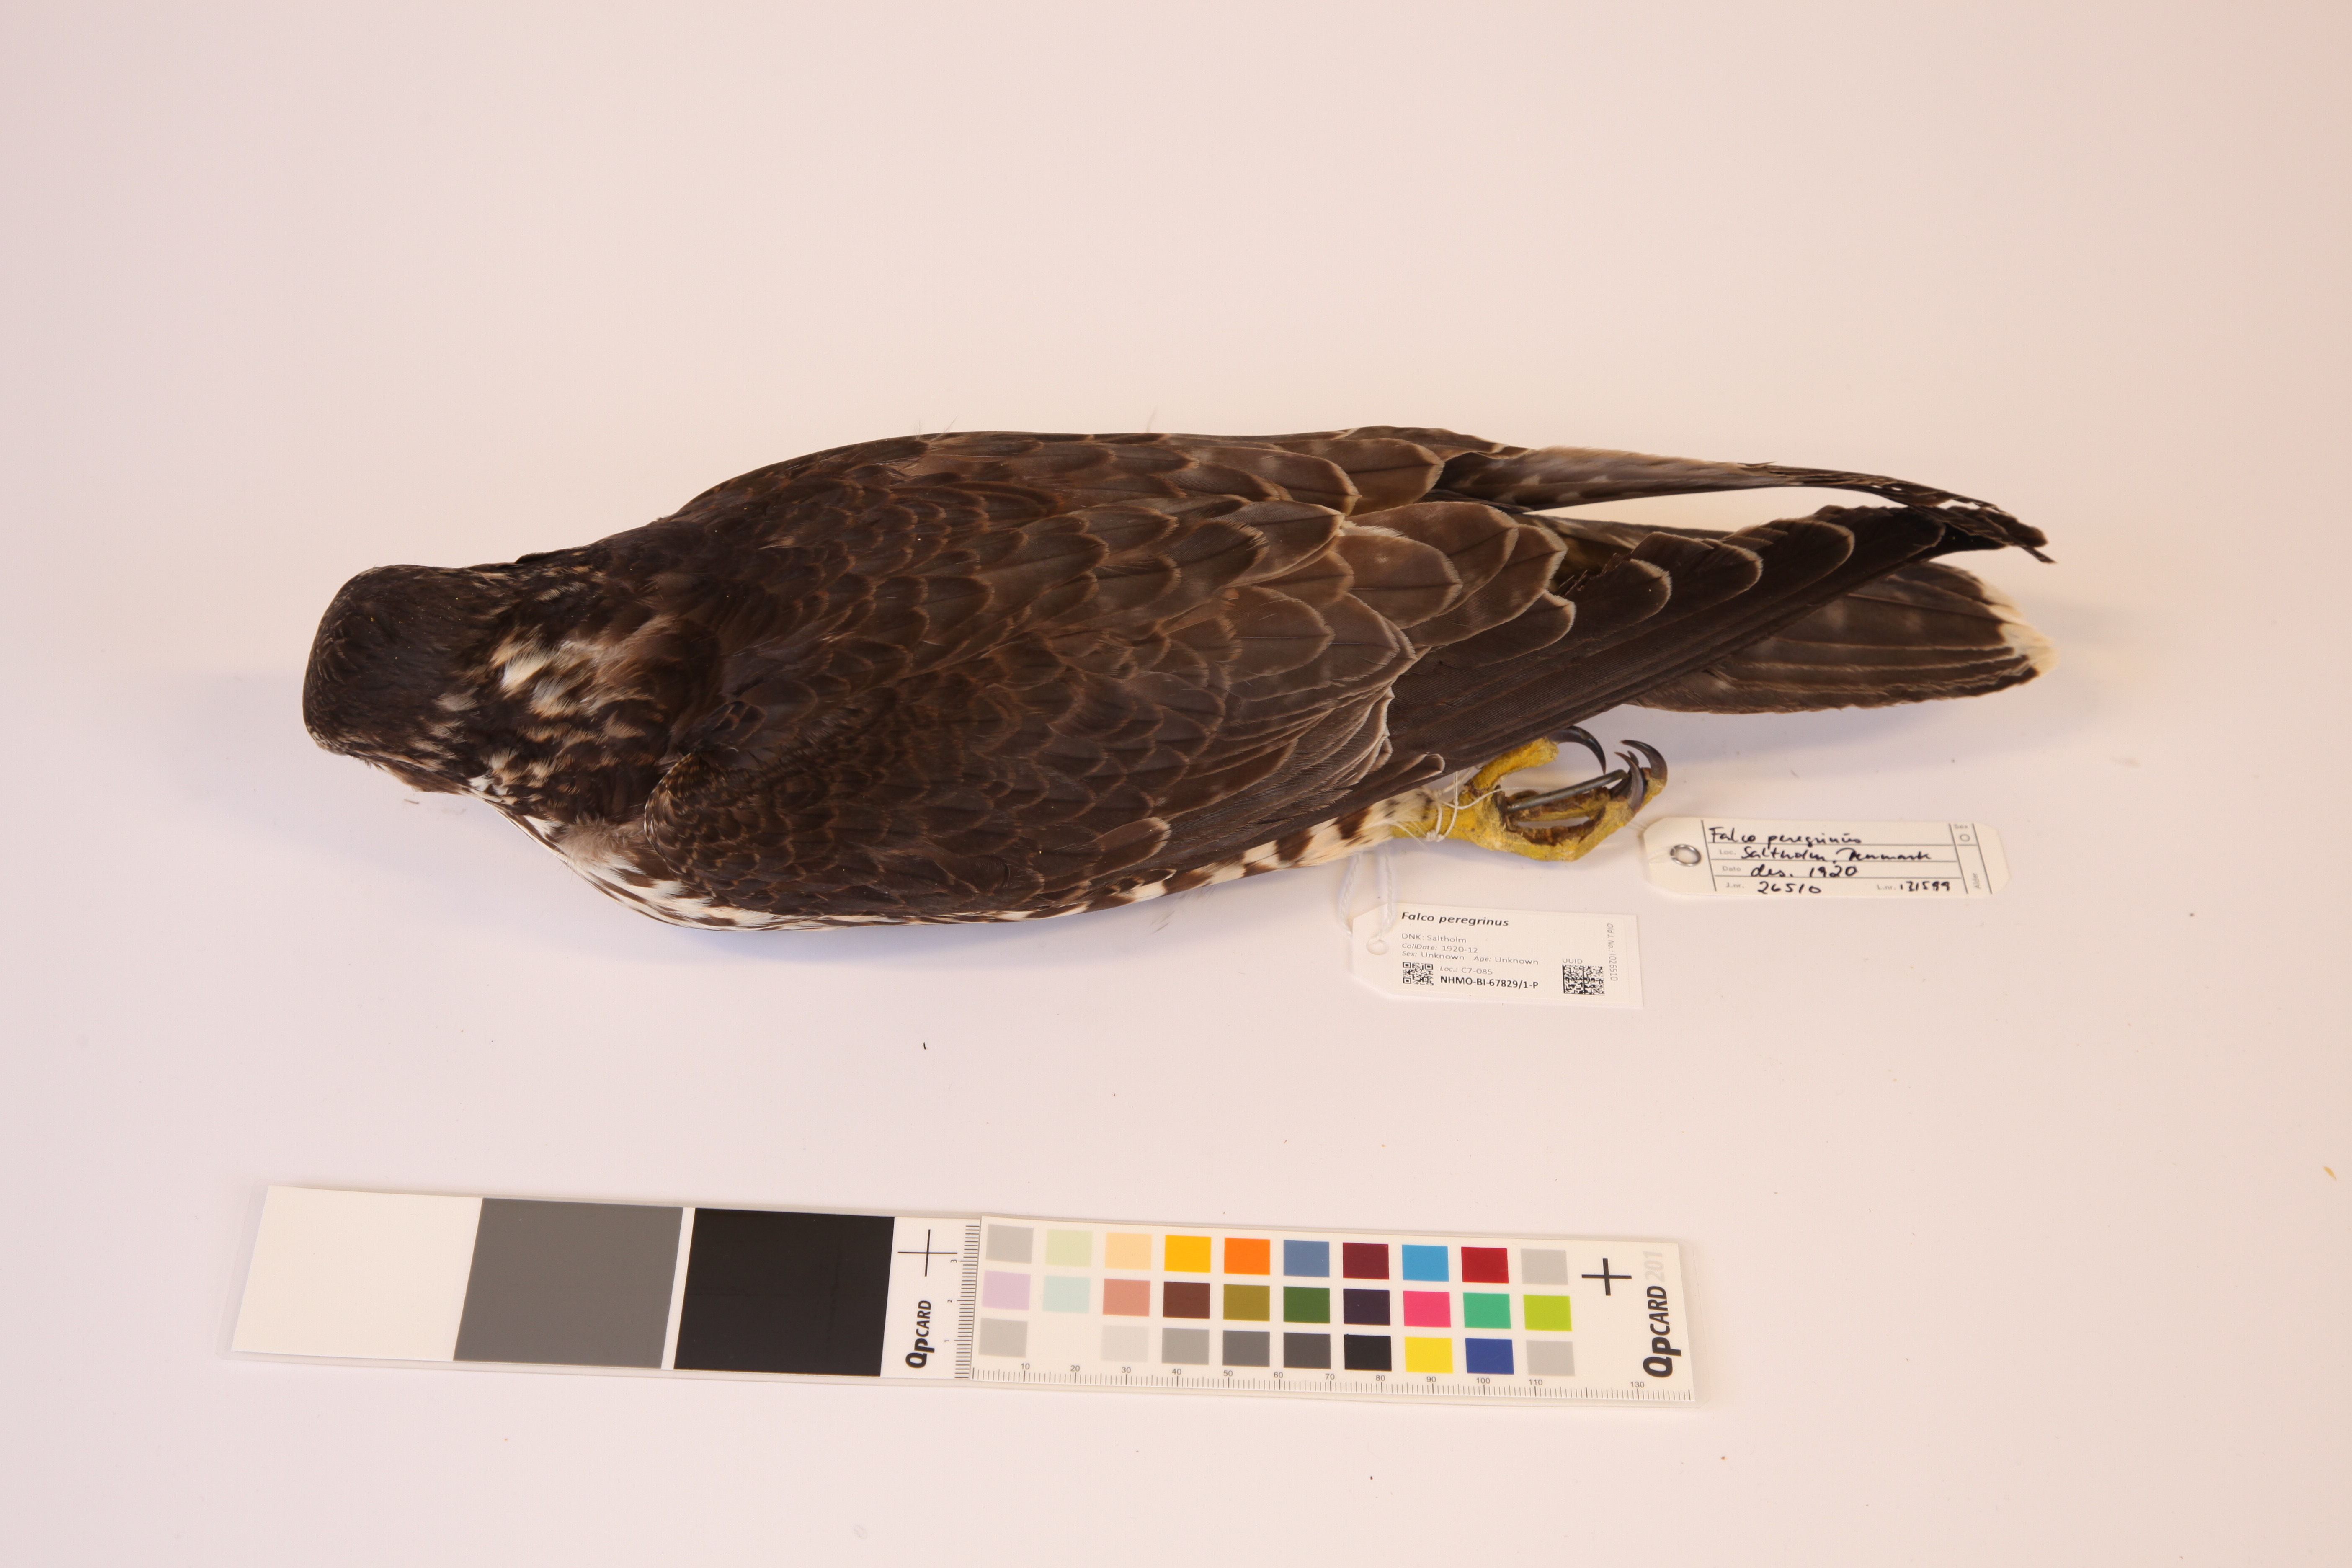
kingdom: Animalia
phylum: Chordata
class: Aves
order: Falconiformes
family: Falconidae
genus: Falco
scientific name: Falco peregrinus
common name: Peregrine falcon
